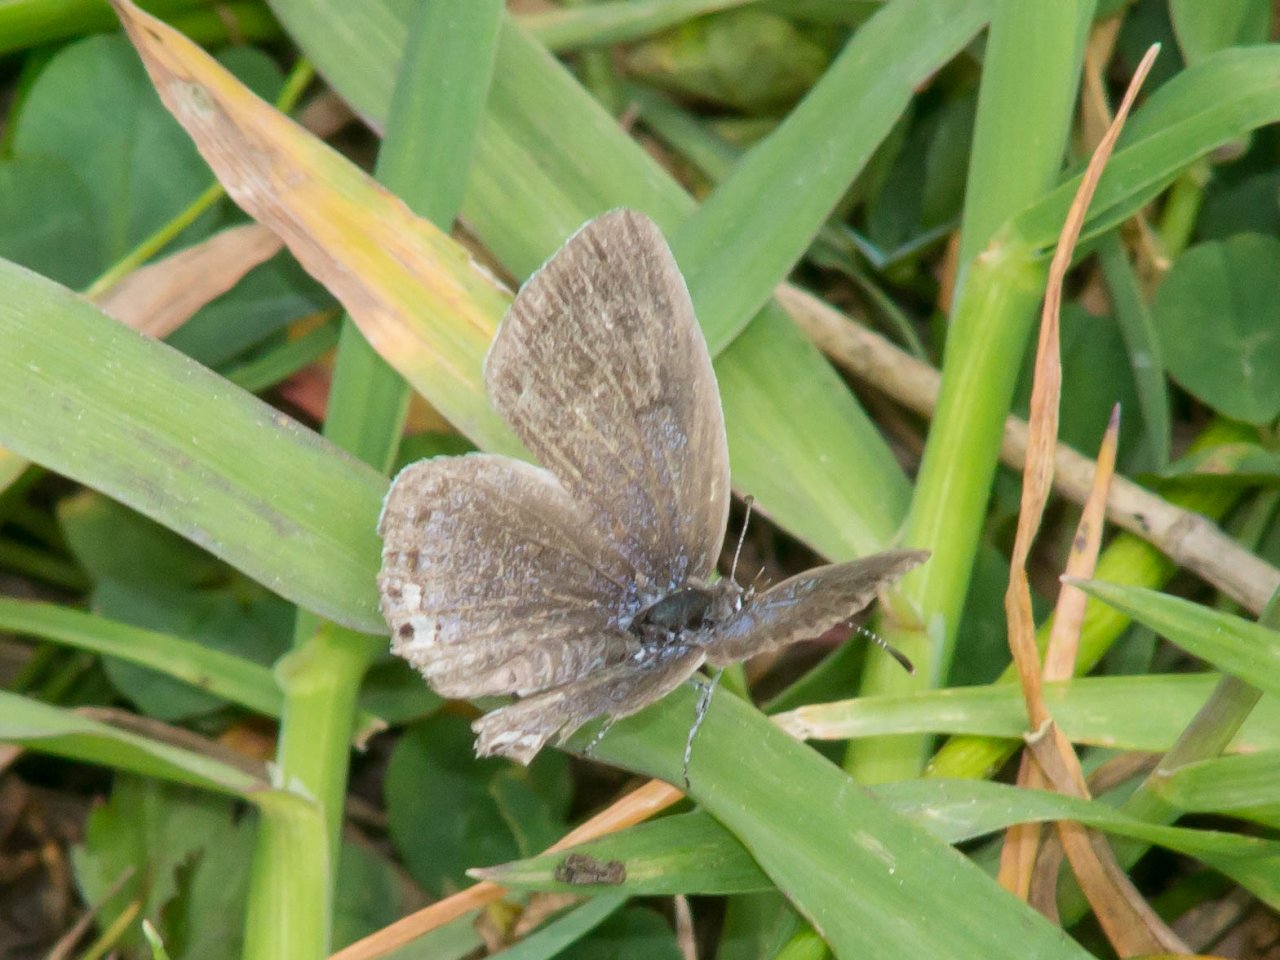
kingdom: Animalia
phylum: Arthropoda
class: Insecta
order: Lepidoptera
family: Lycaenidae
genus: Elkalyce
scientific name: Elkalyce comyntas
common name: Eastern Tailed-Blue
